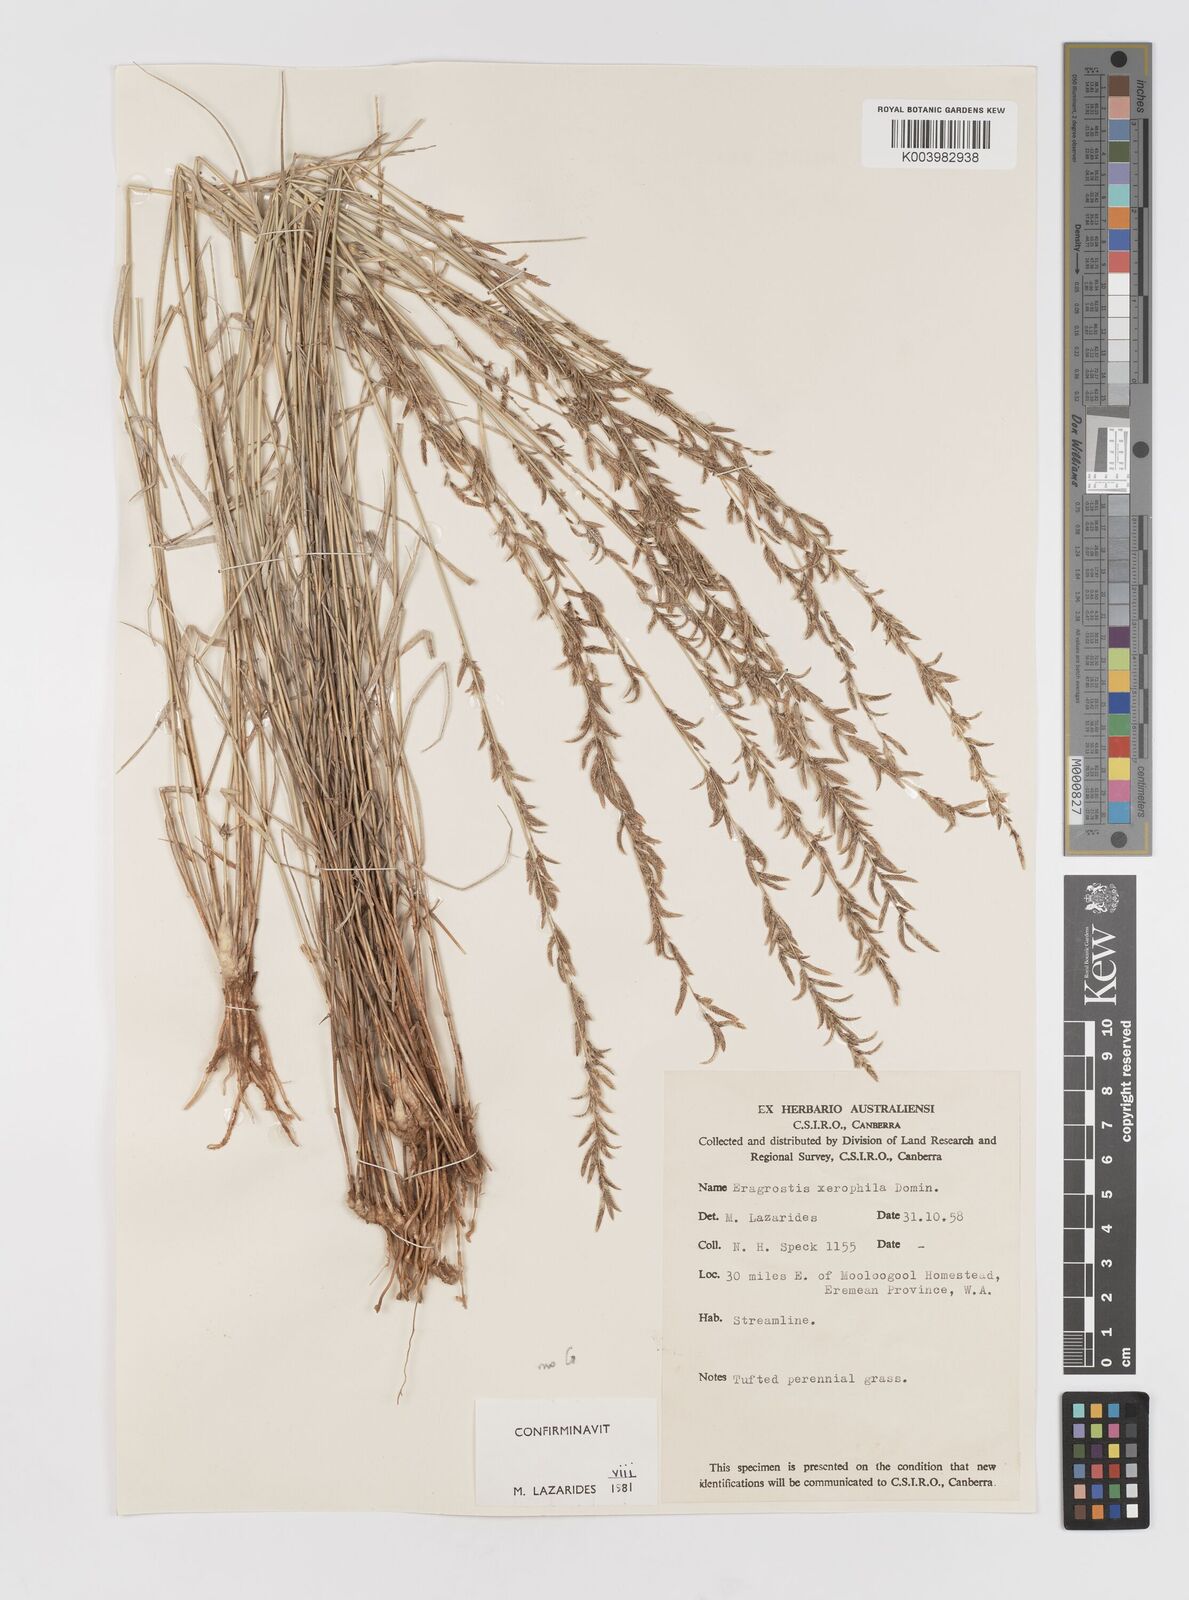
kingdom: Plantae
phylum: Tracheophyta
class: Liliopsida
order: Poales
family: Poaceae
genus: Eragrostis
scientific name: Eragrostis xerophila
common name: Wire wandarrie grass
